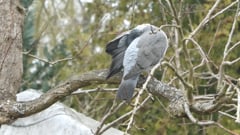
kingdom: Animalia
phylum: Chordata
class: Aves
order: Columbiformes
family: Columbidae
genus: Columba
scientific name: Columba palumbus
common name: Common wood pigeon
